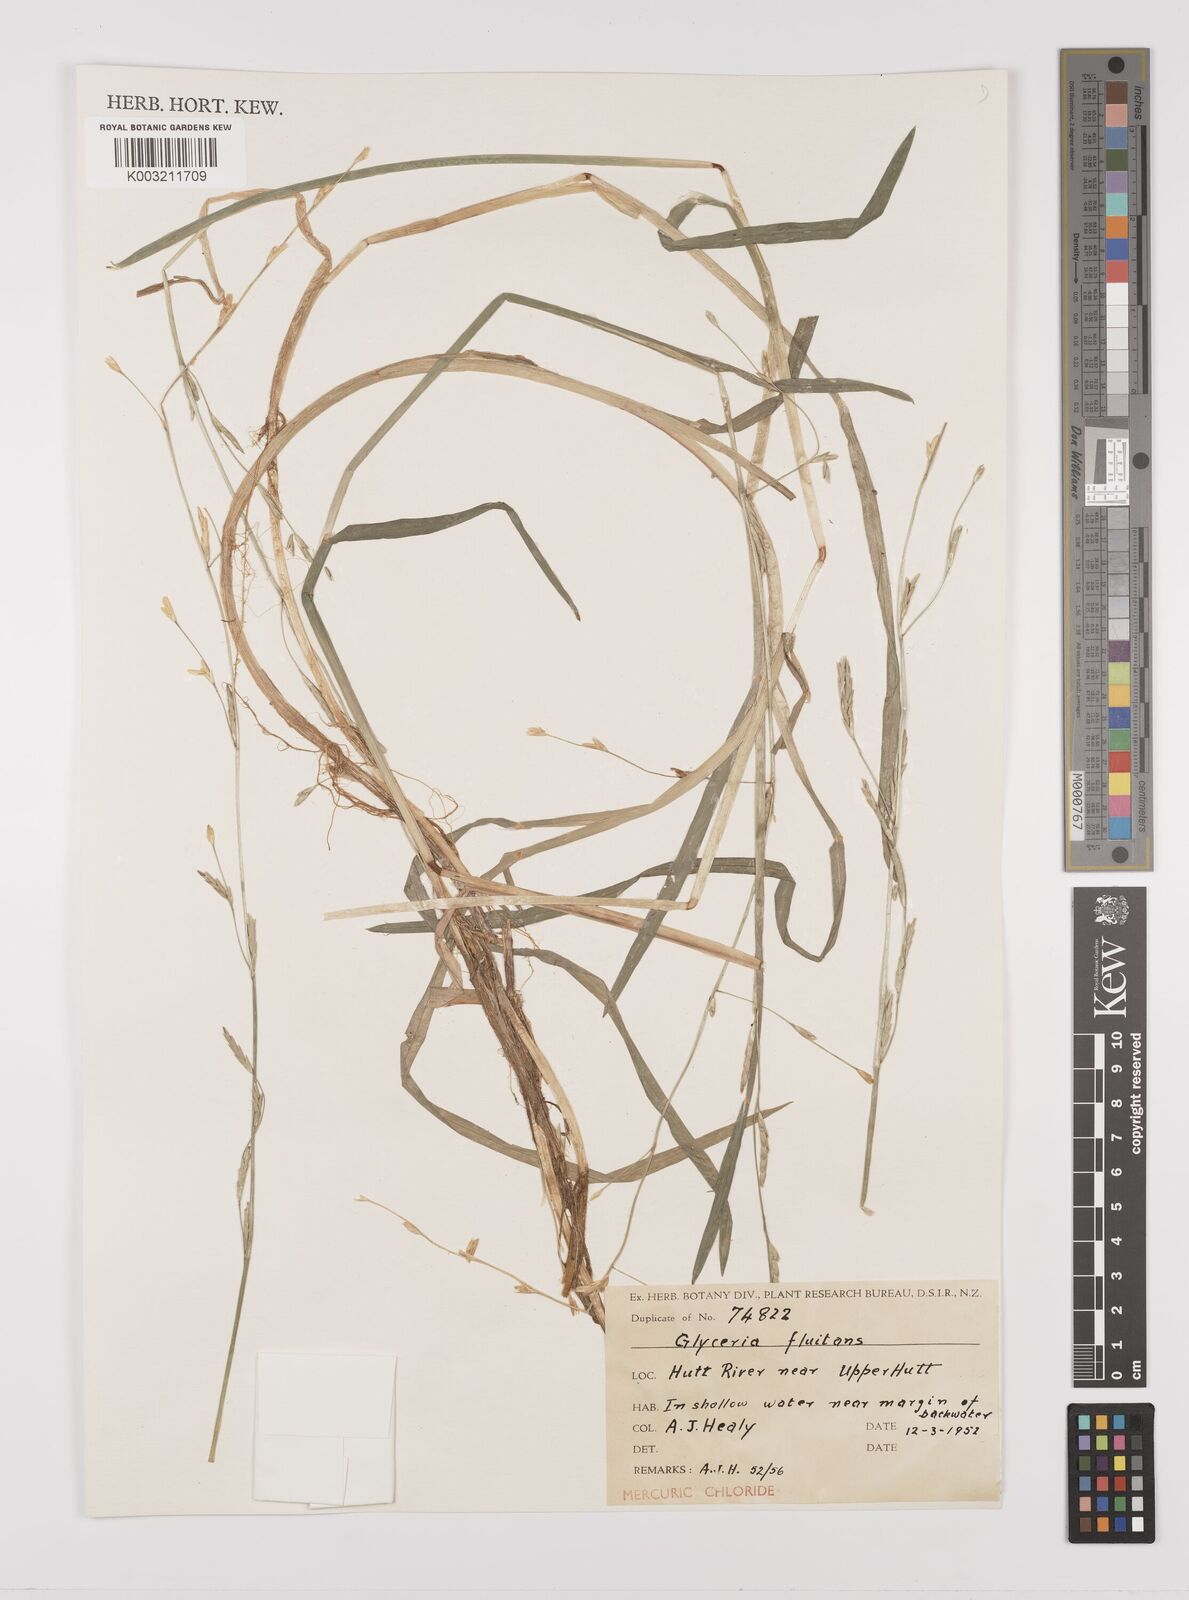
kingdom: Plantae
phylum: Tracheophyta
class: Liliopsida
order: Poales
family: Poaceae
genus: Glyceria
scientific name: Glyceria fluitans
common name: Floating sweet-grass
